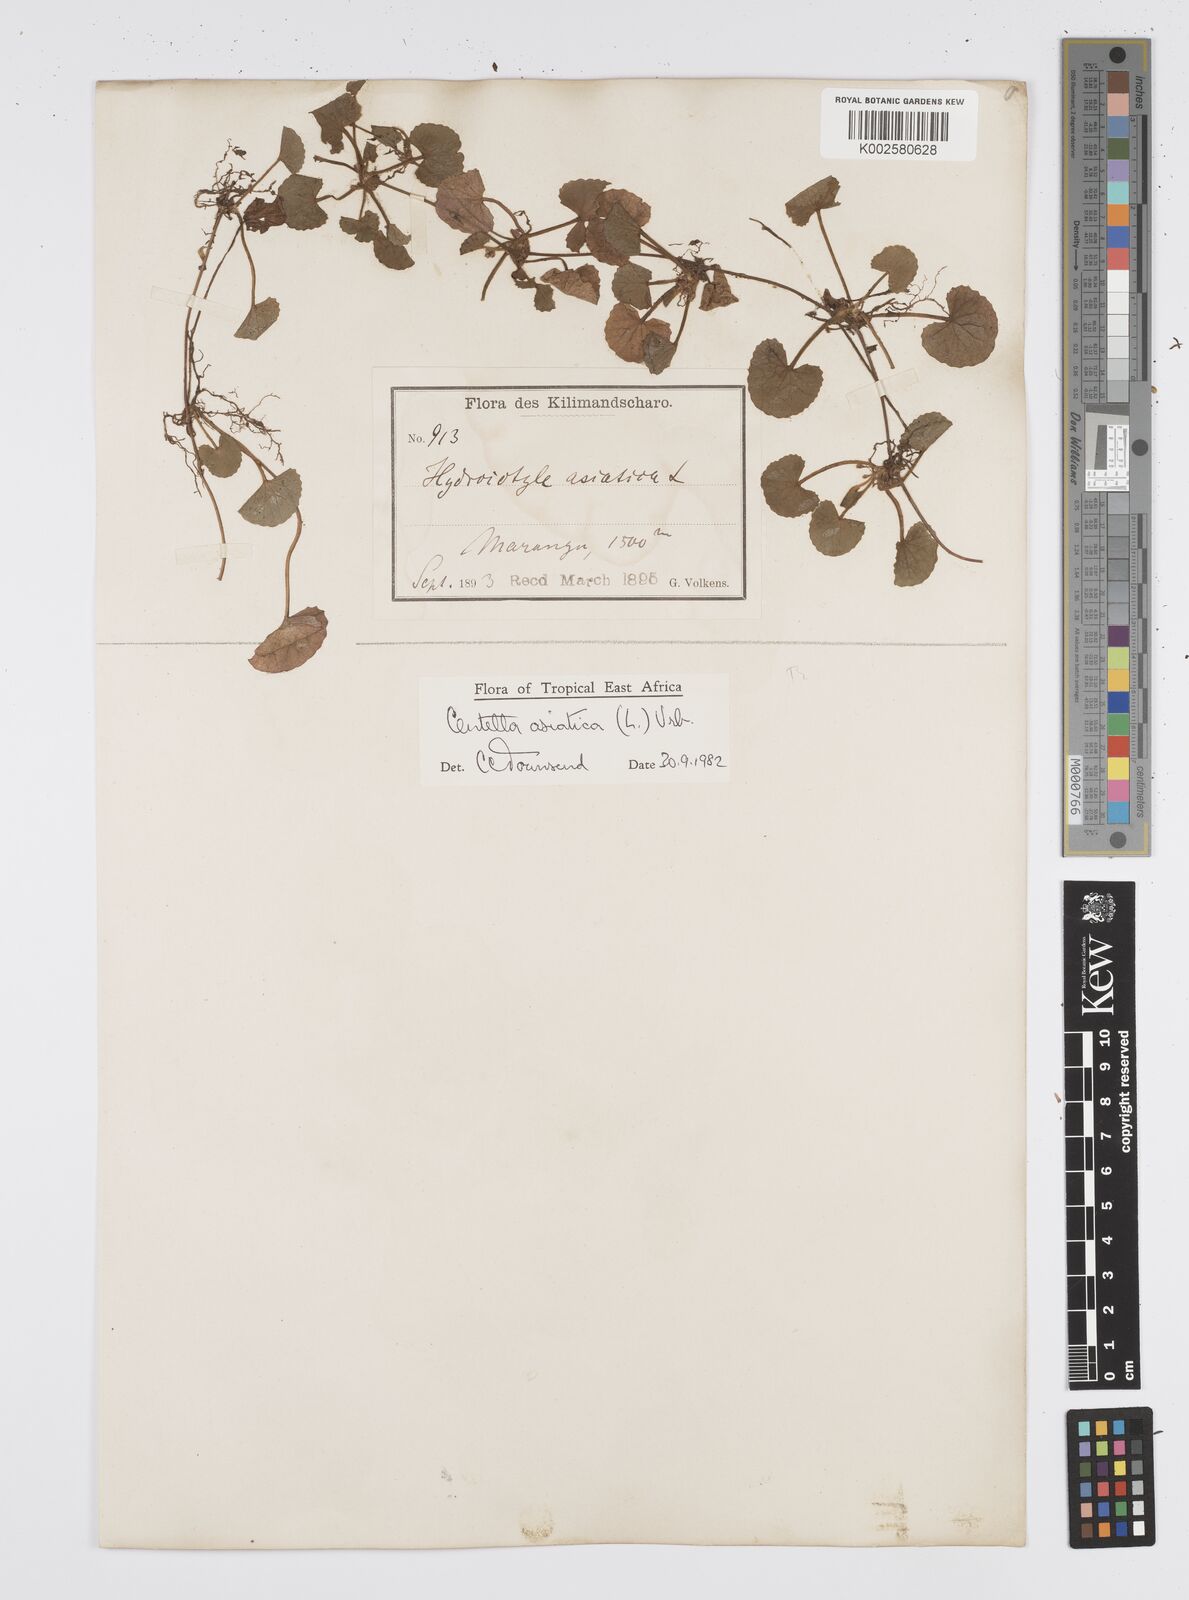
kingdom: Plantae
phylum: Tracheophyta
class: Magnoliopsida
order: Apiales
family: Apiaceae
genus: Centella
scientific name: Centella asiatica
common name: Spadeleaf
